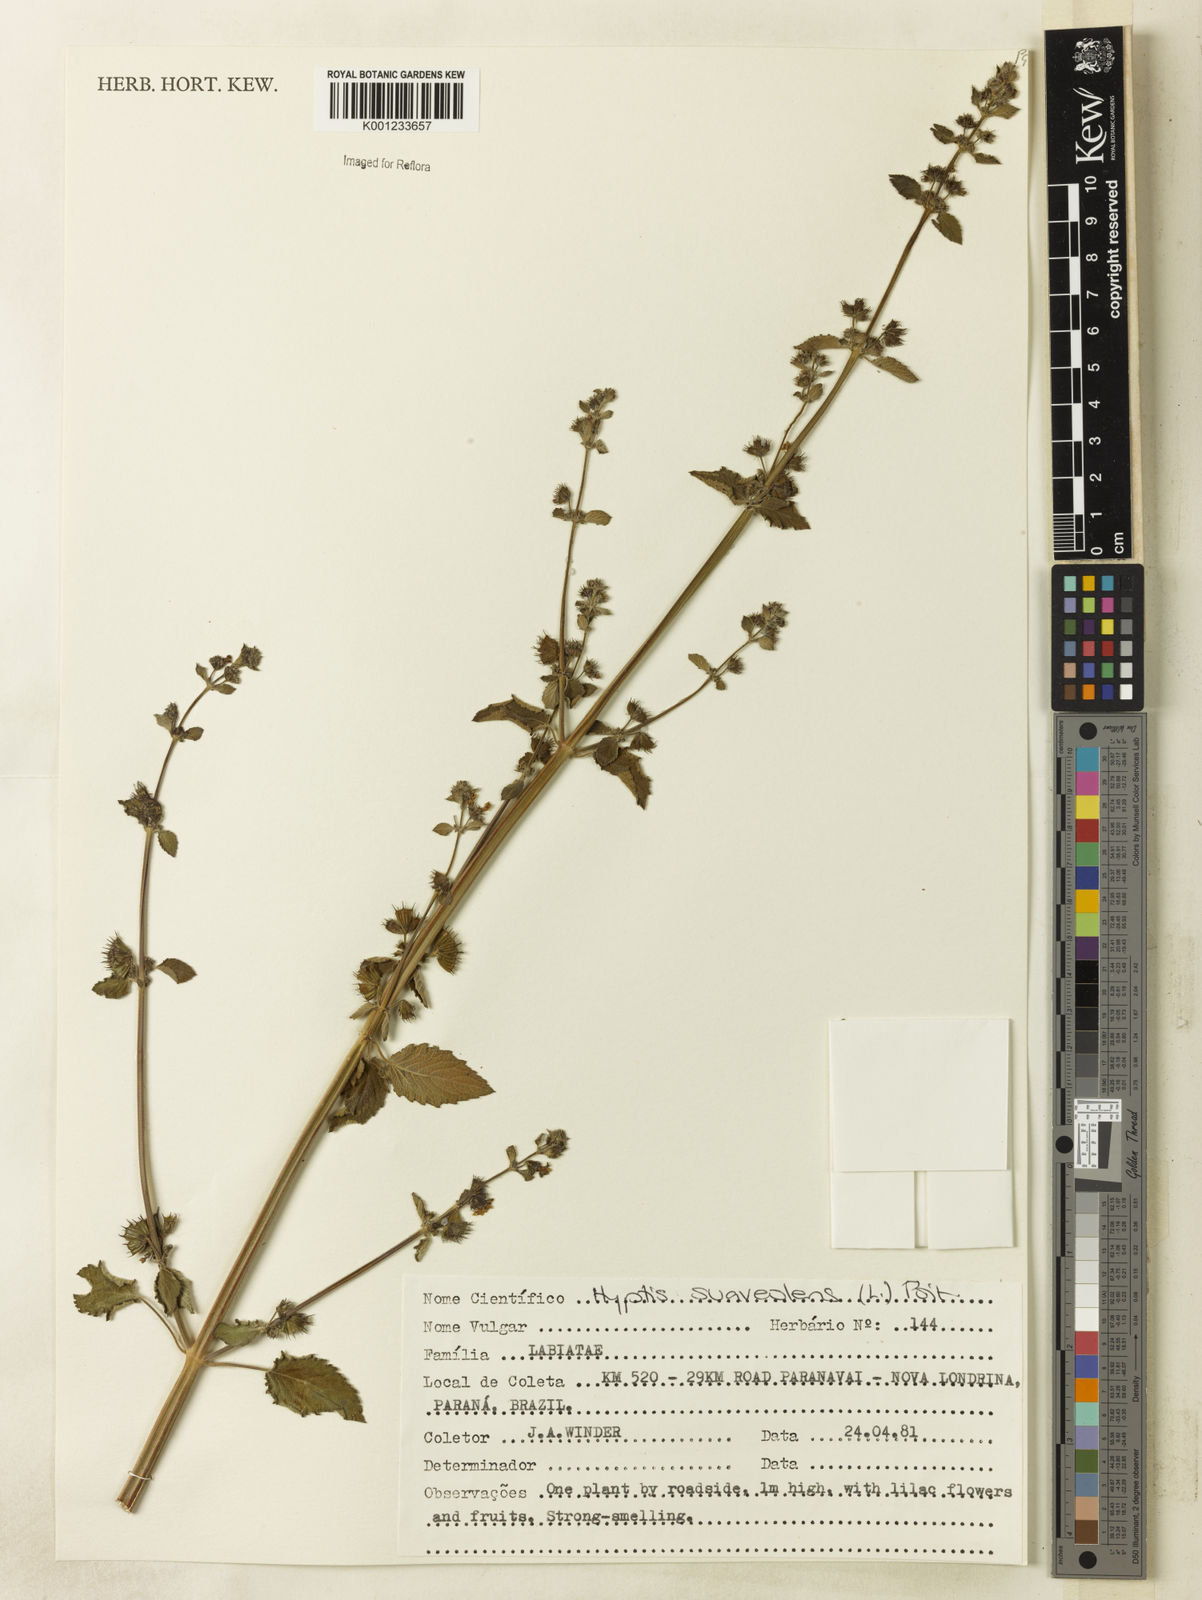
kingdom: Plantae
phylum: Tracheophyta
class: Magnoliopsida
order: Lamiales
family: Lamiaceae
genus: Mesosphaerum
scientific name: Mesosphaerum suaveolens
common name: Pignut
